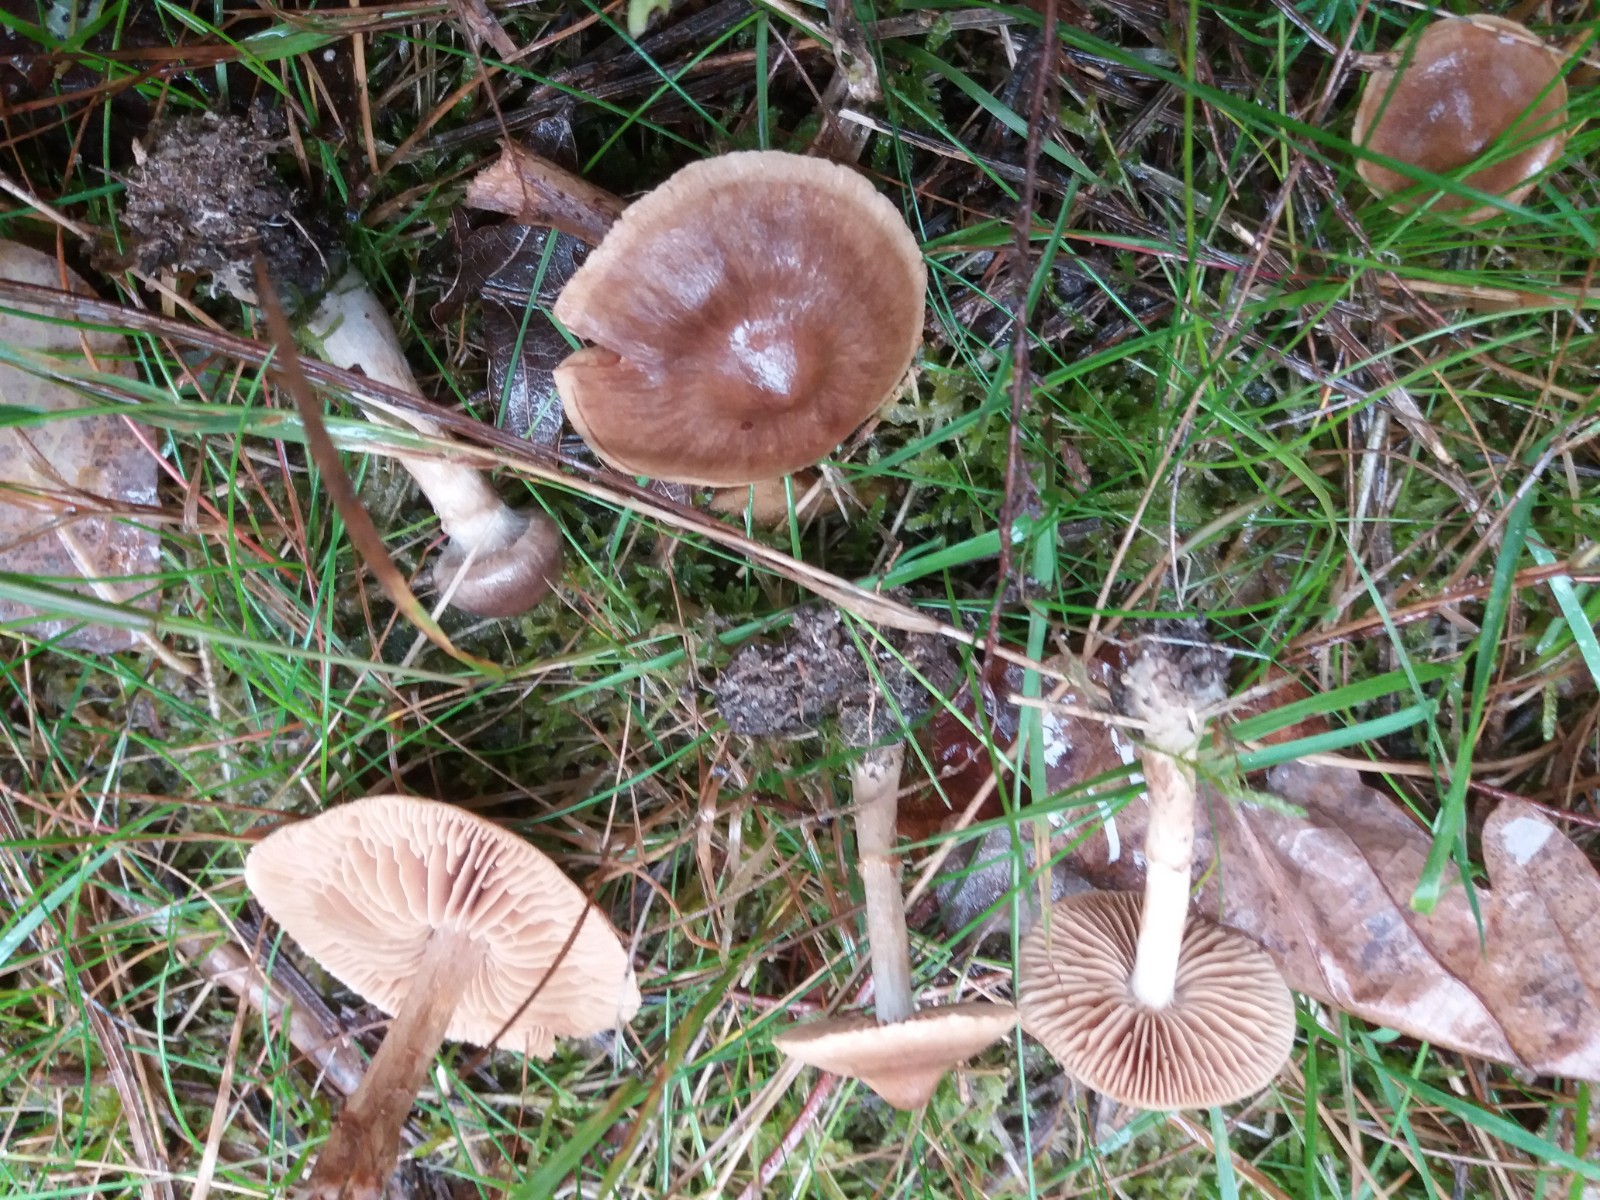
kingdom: Fungi
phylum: Basidiomycota
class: Agaricomycetes
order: Agaricales
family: Cortinariaceae
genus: Cortinarius
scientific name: Cortinarius raphanoides
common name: ræddike-slørhat
